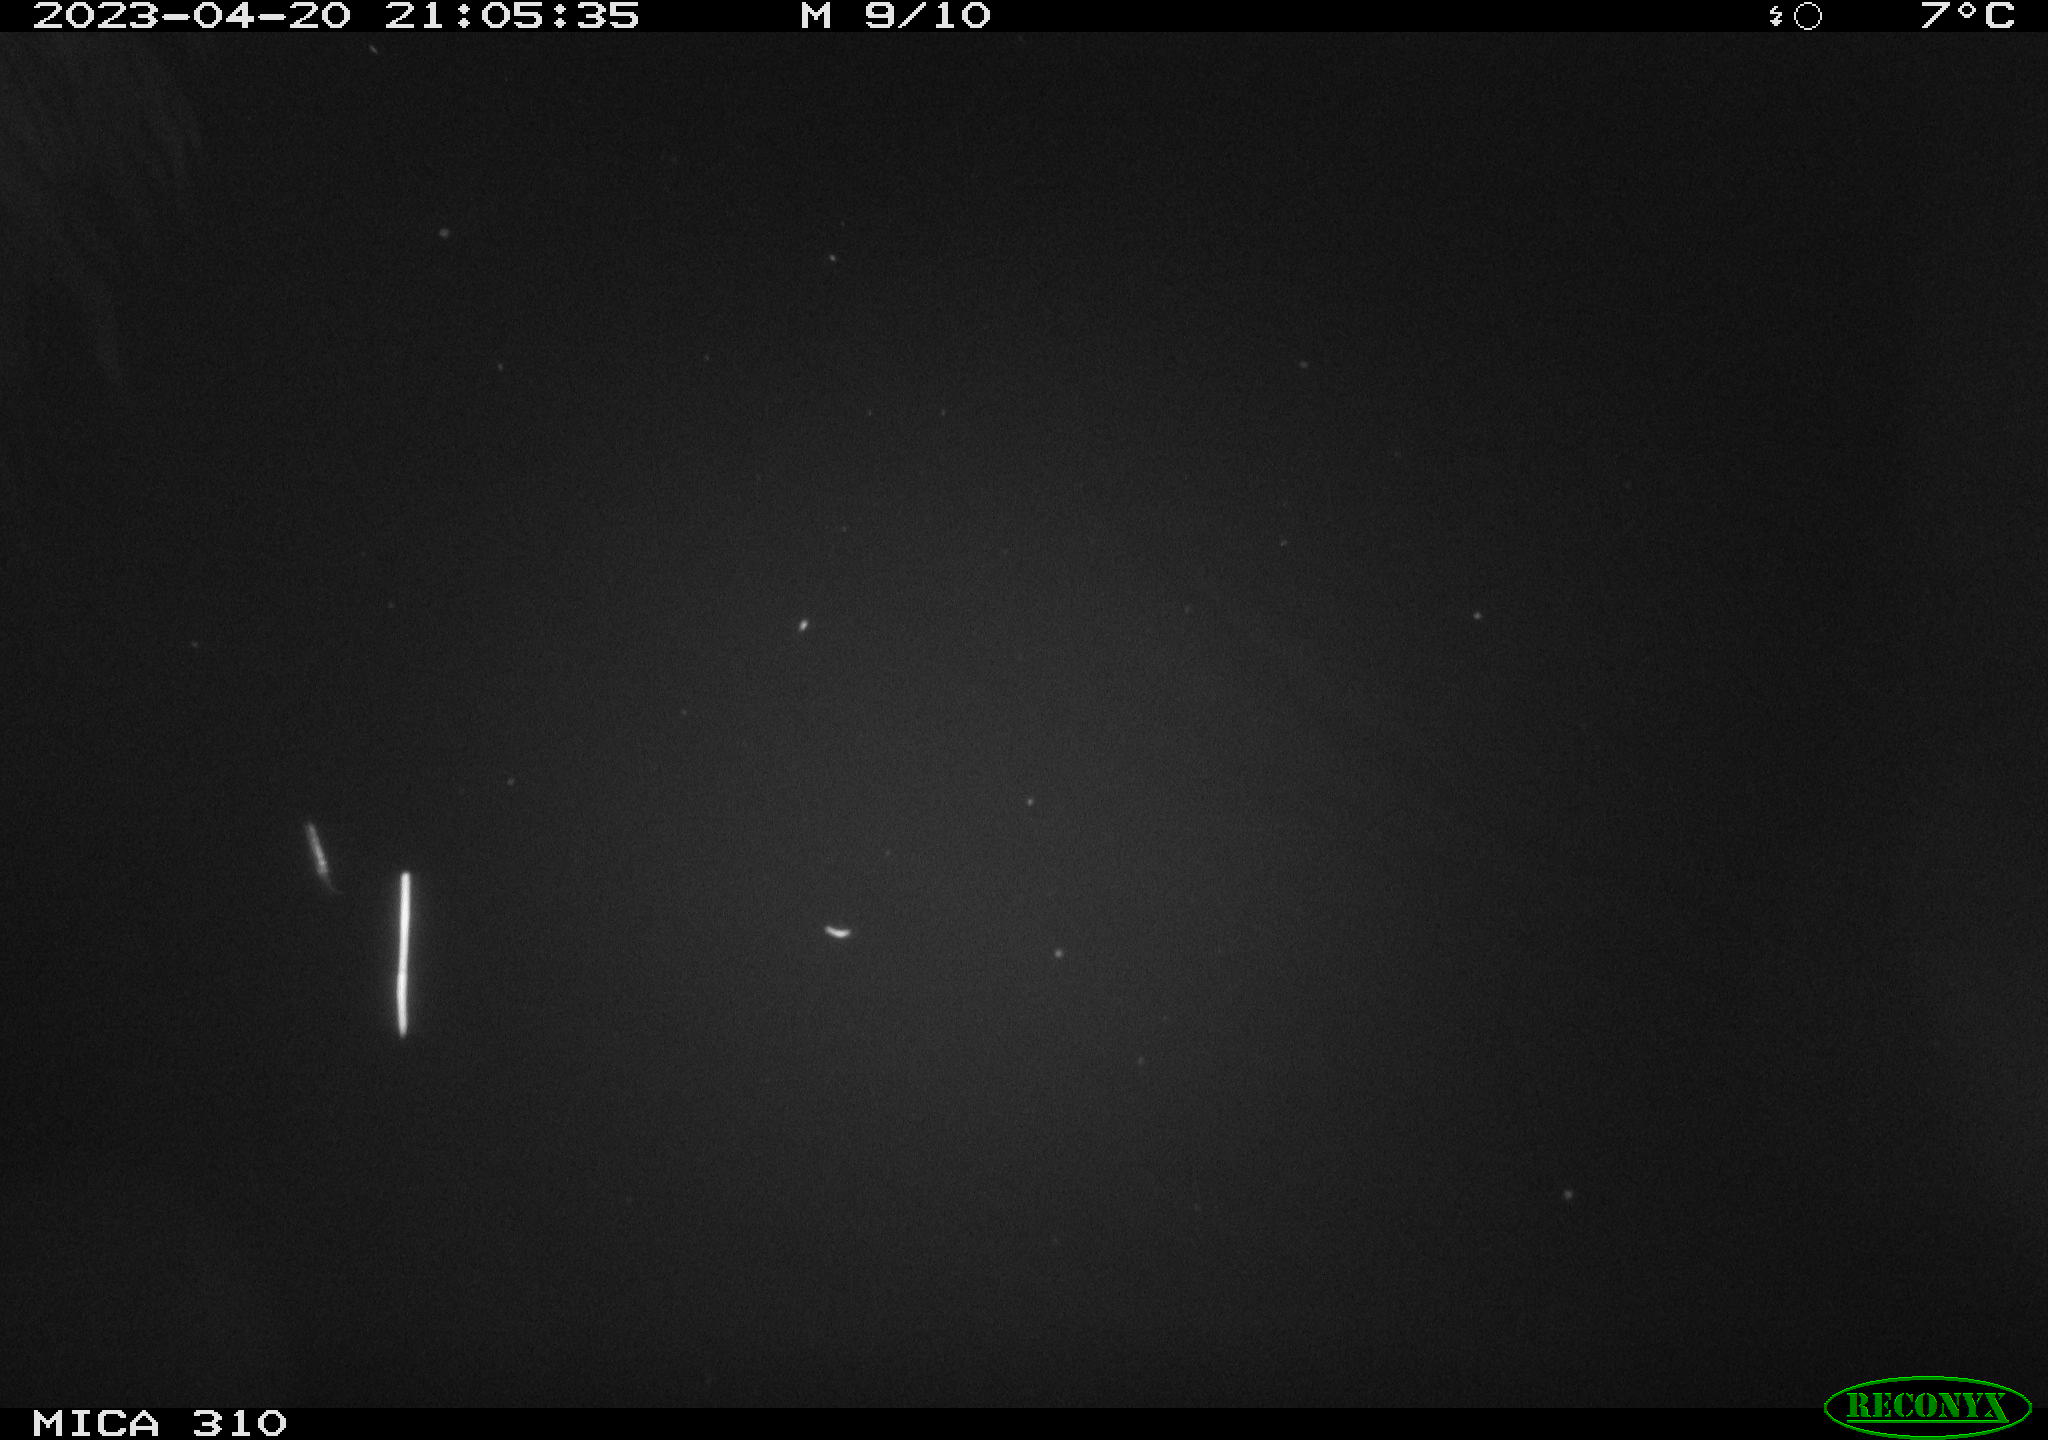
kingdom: Animalia
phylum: Chordata
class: Aves
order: Anseriformes
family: Anatidae
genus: Anas
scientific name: Anas
